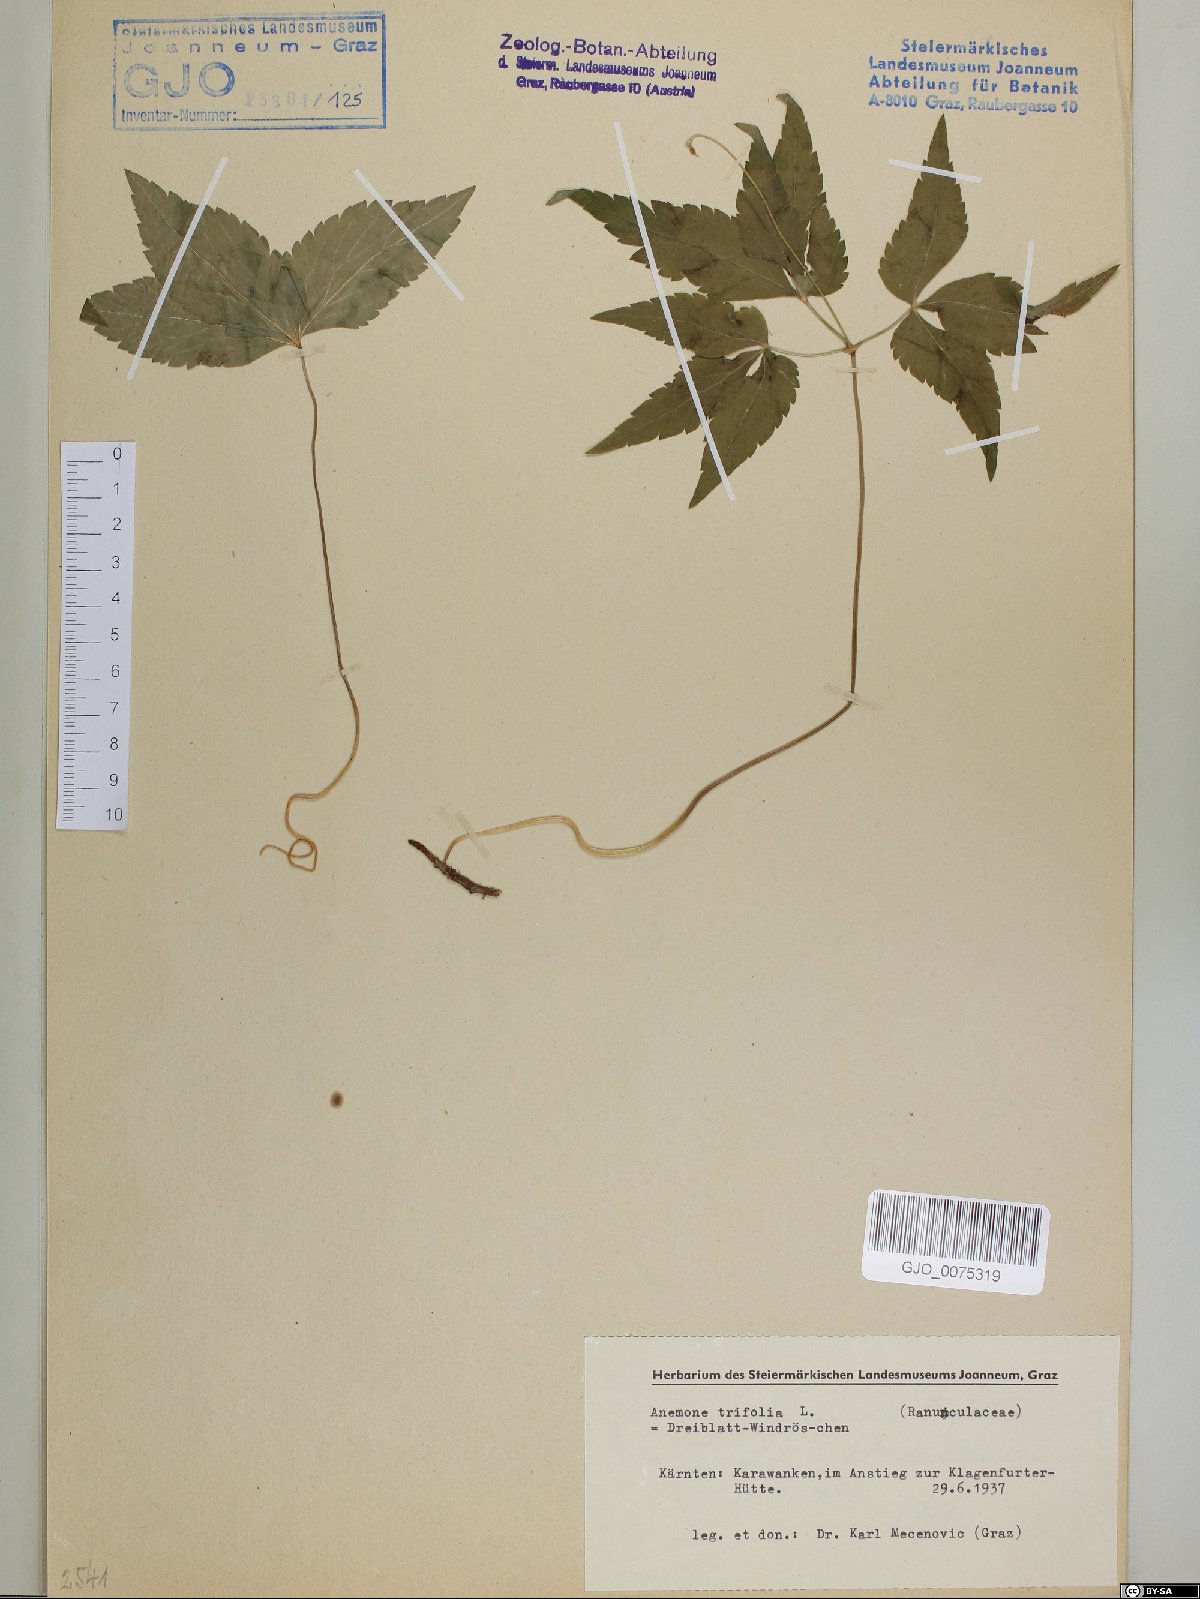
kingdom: Plantae
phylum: Tracheophyta
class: Magnoliopsida
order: Ranunculales
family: Ranunculaceae
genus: Anemone
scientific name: Anemone trifolia
